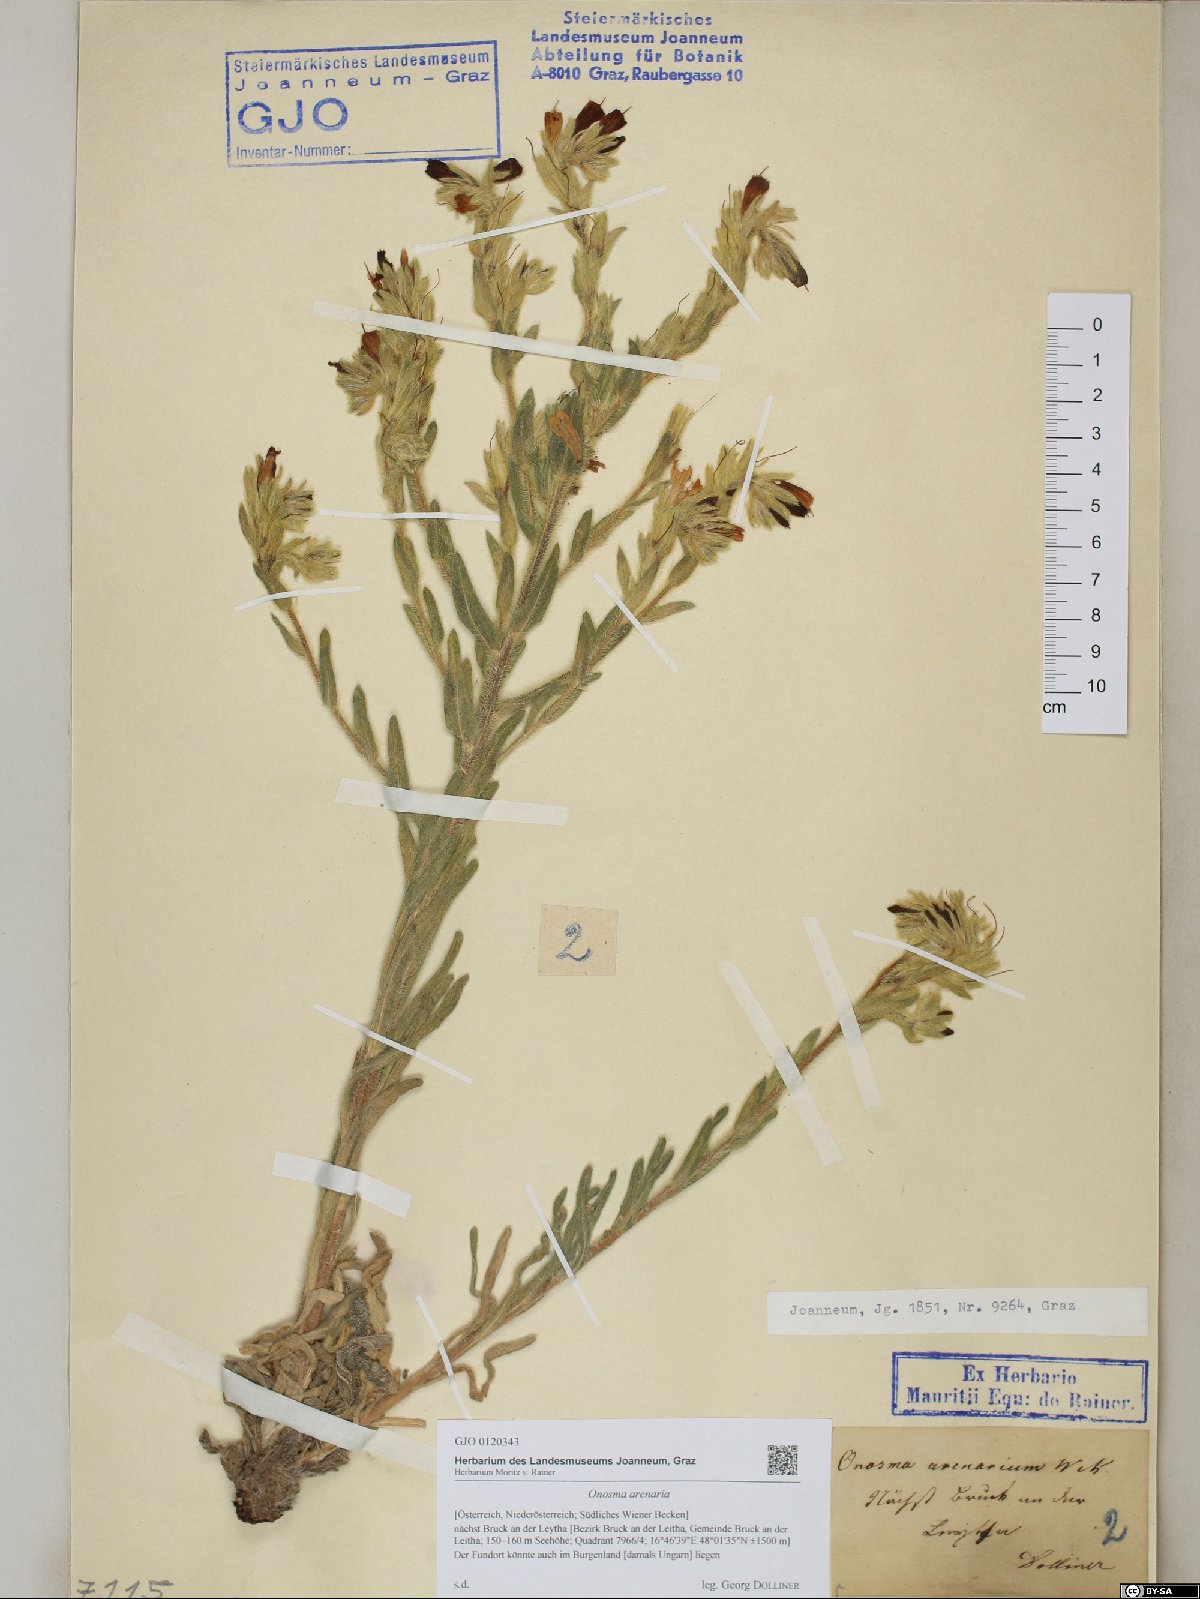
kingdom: Plantae
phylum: Tracheophyta
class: Magnoliopsida
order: Boraginales
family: Boraginaceae
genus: Onosma
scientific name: Onosma arenaria
